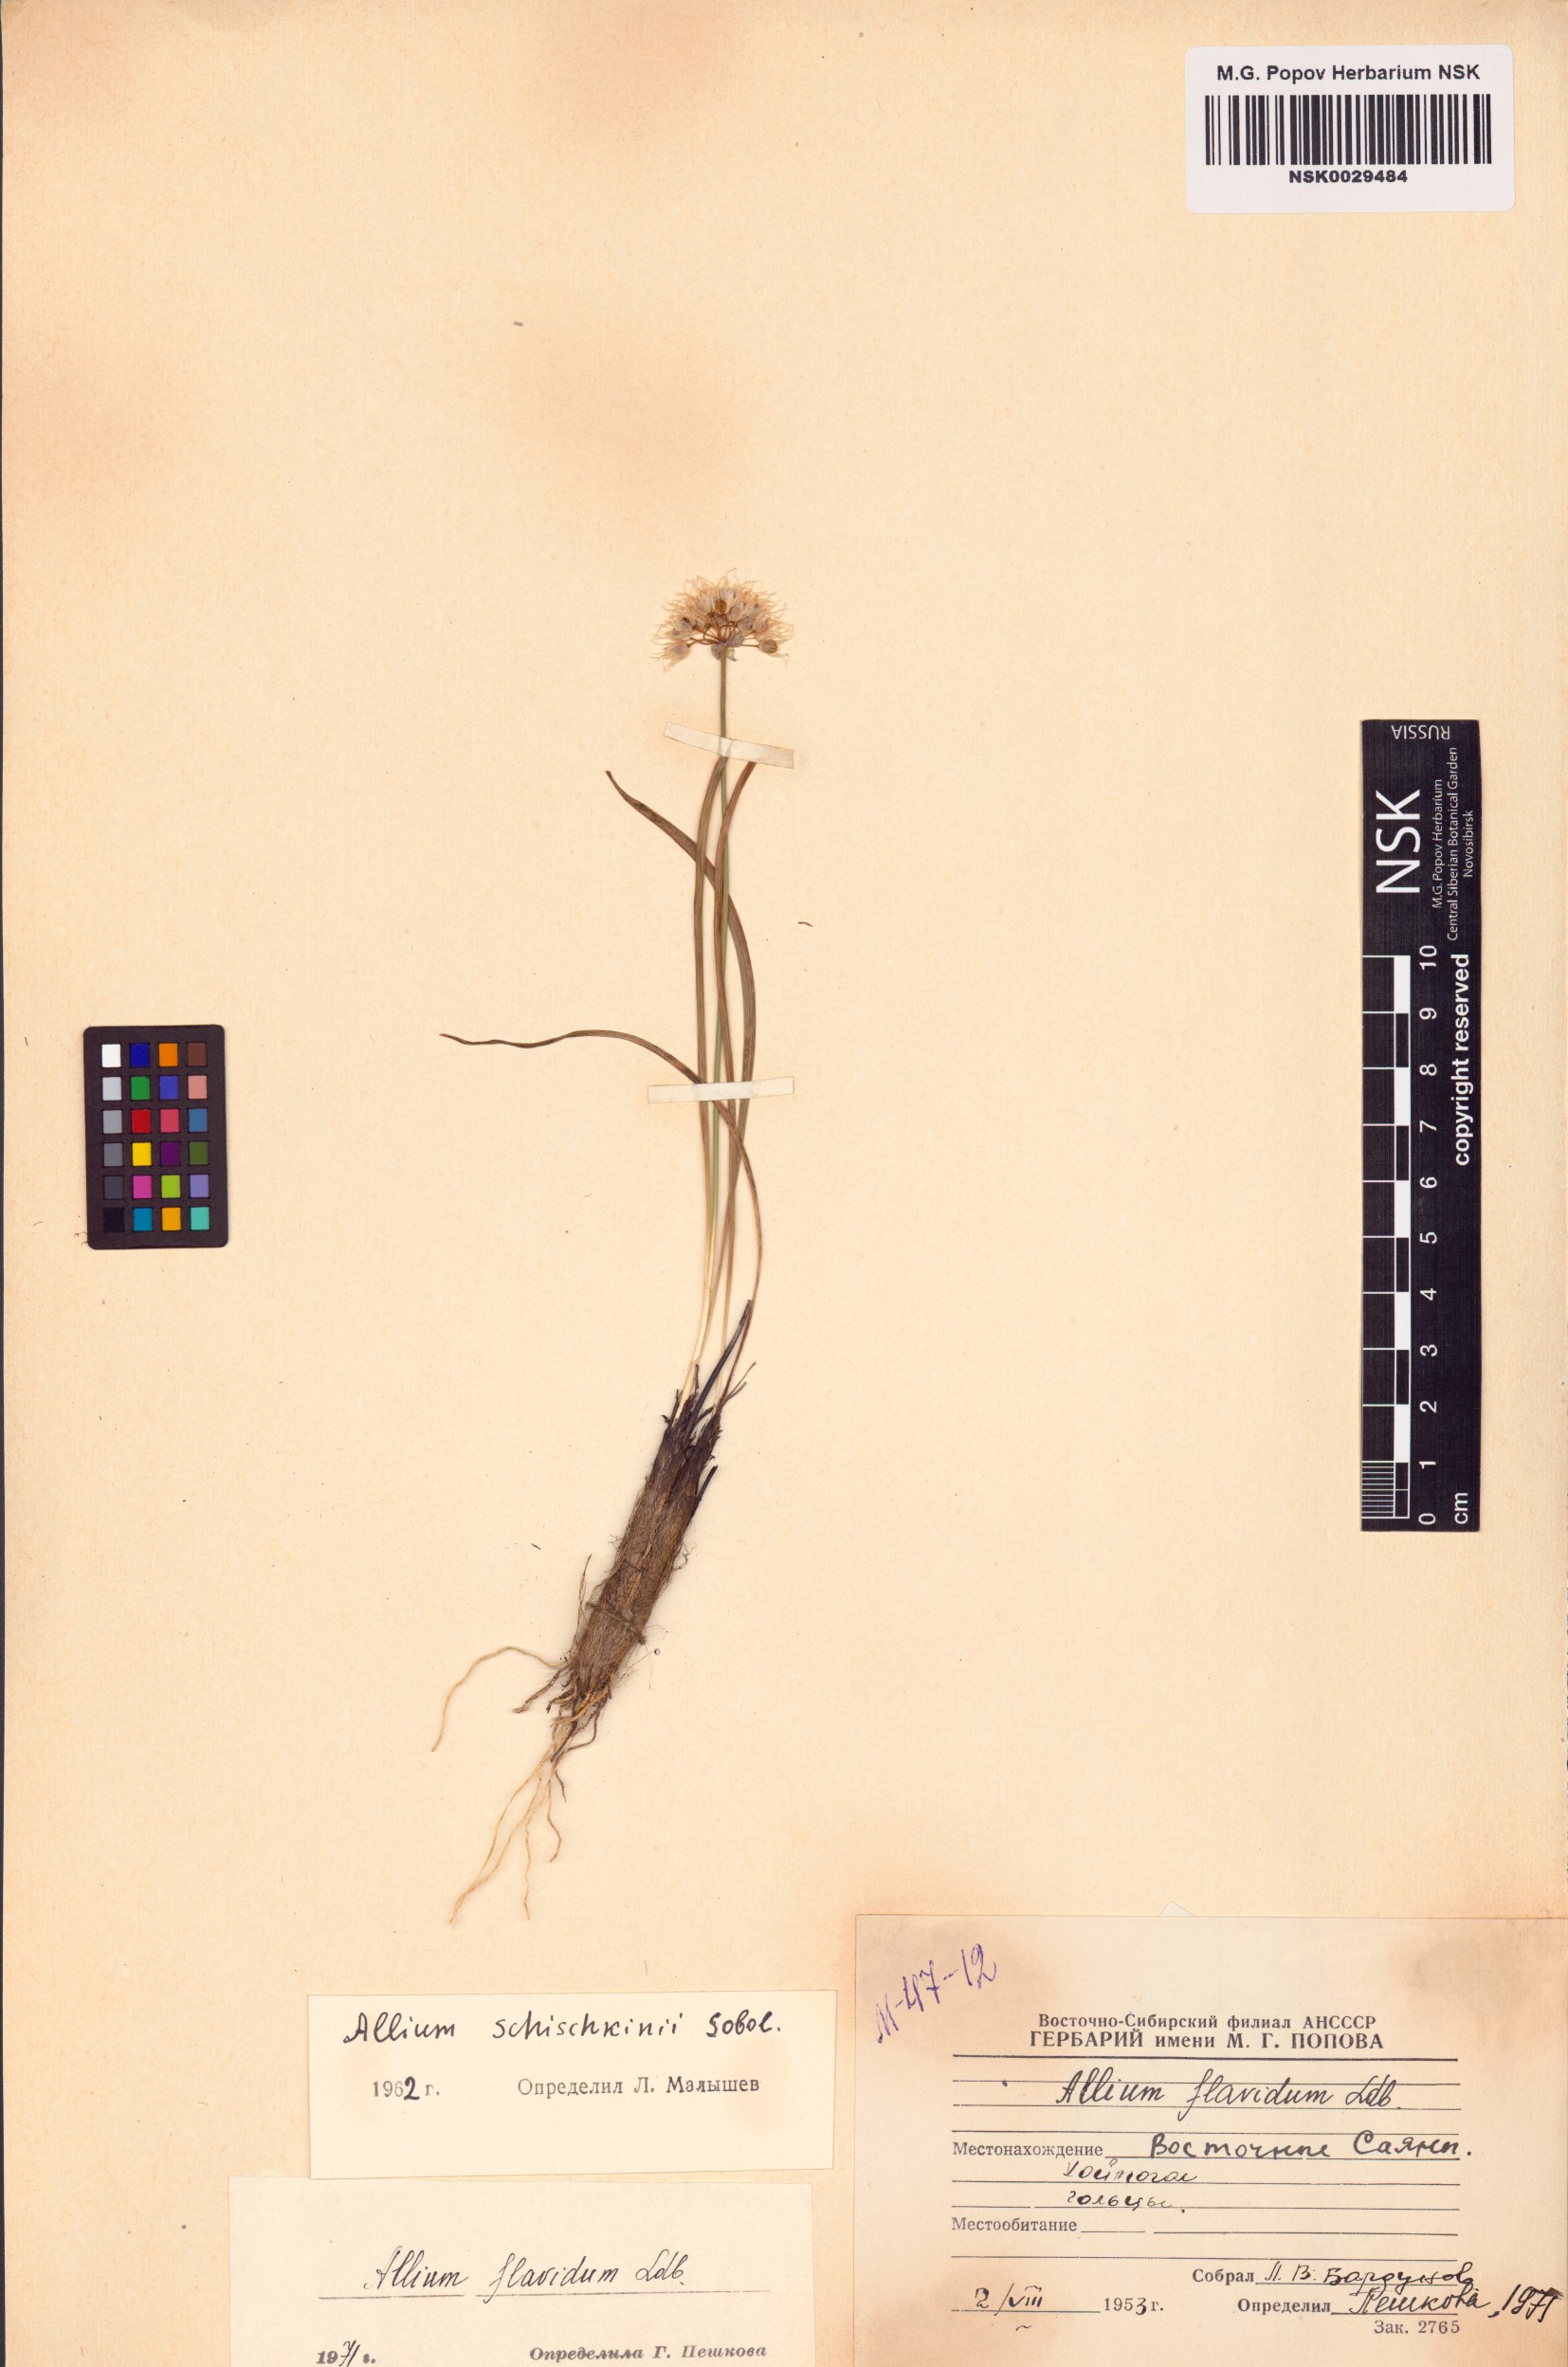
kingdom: Plantae
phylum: Tracheophyta
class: Liliopsida
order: Asparagales
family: Amaryllidaceae
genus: Allium
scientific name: Allium flavidum
